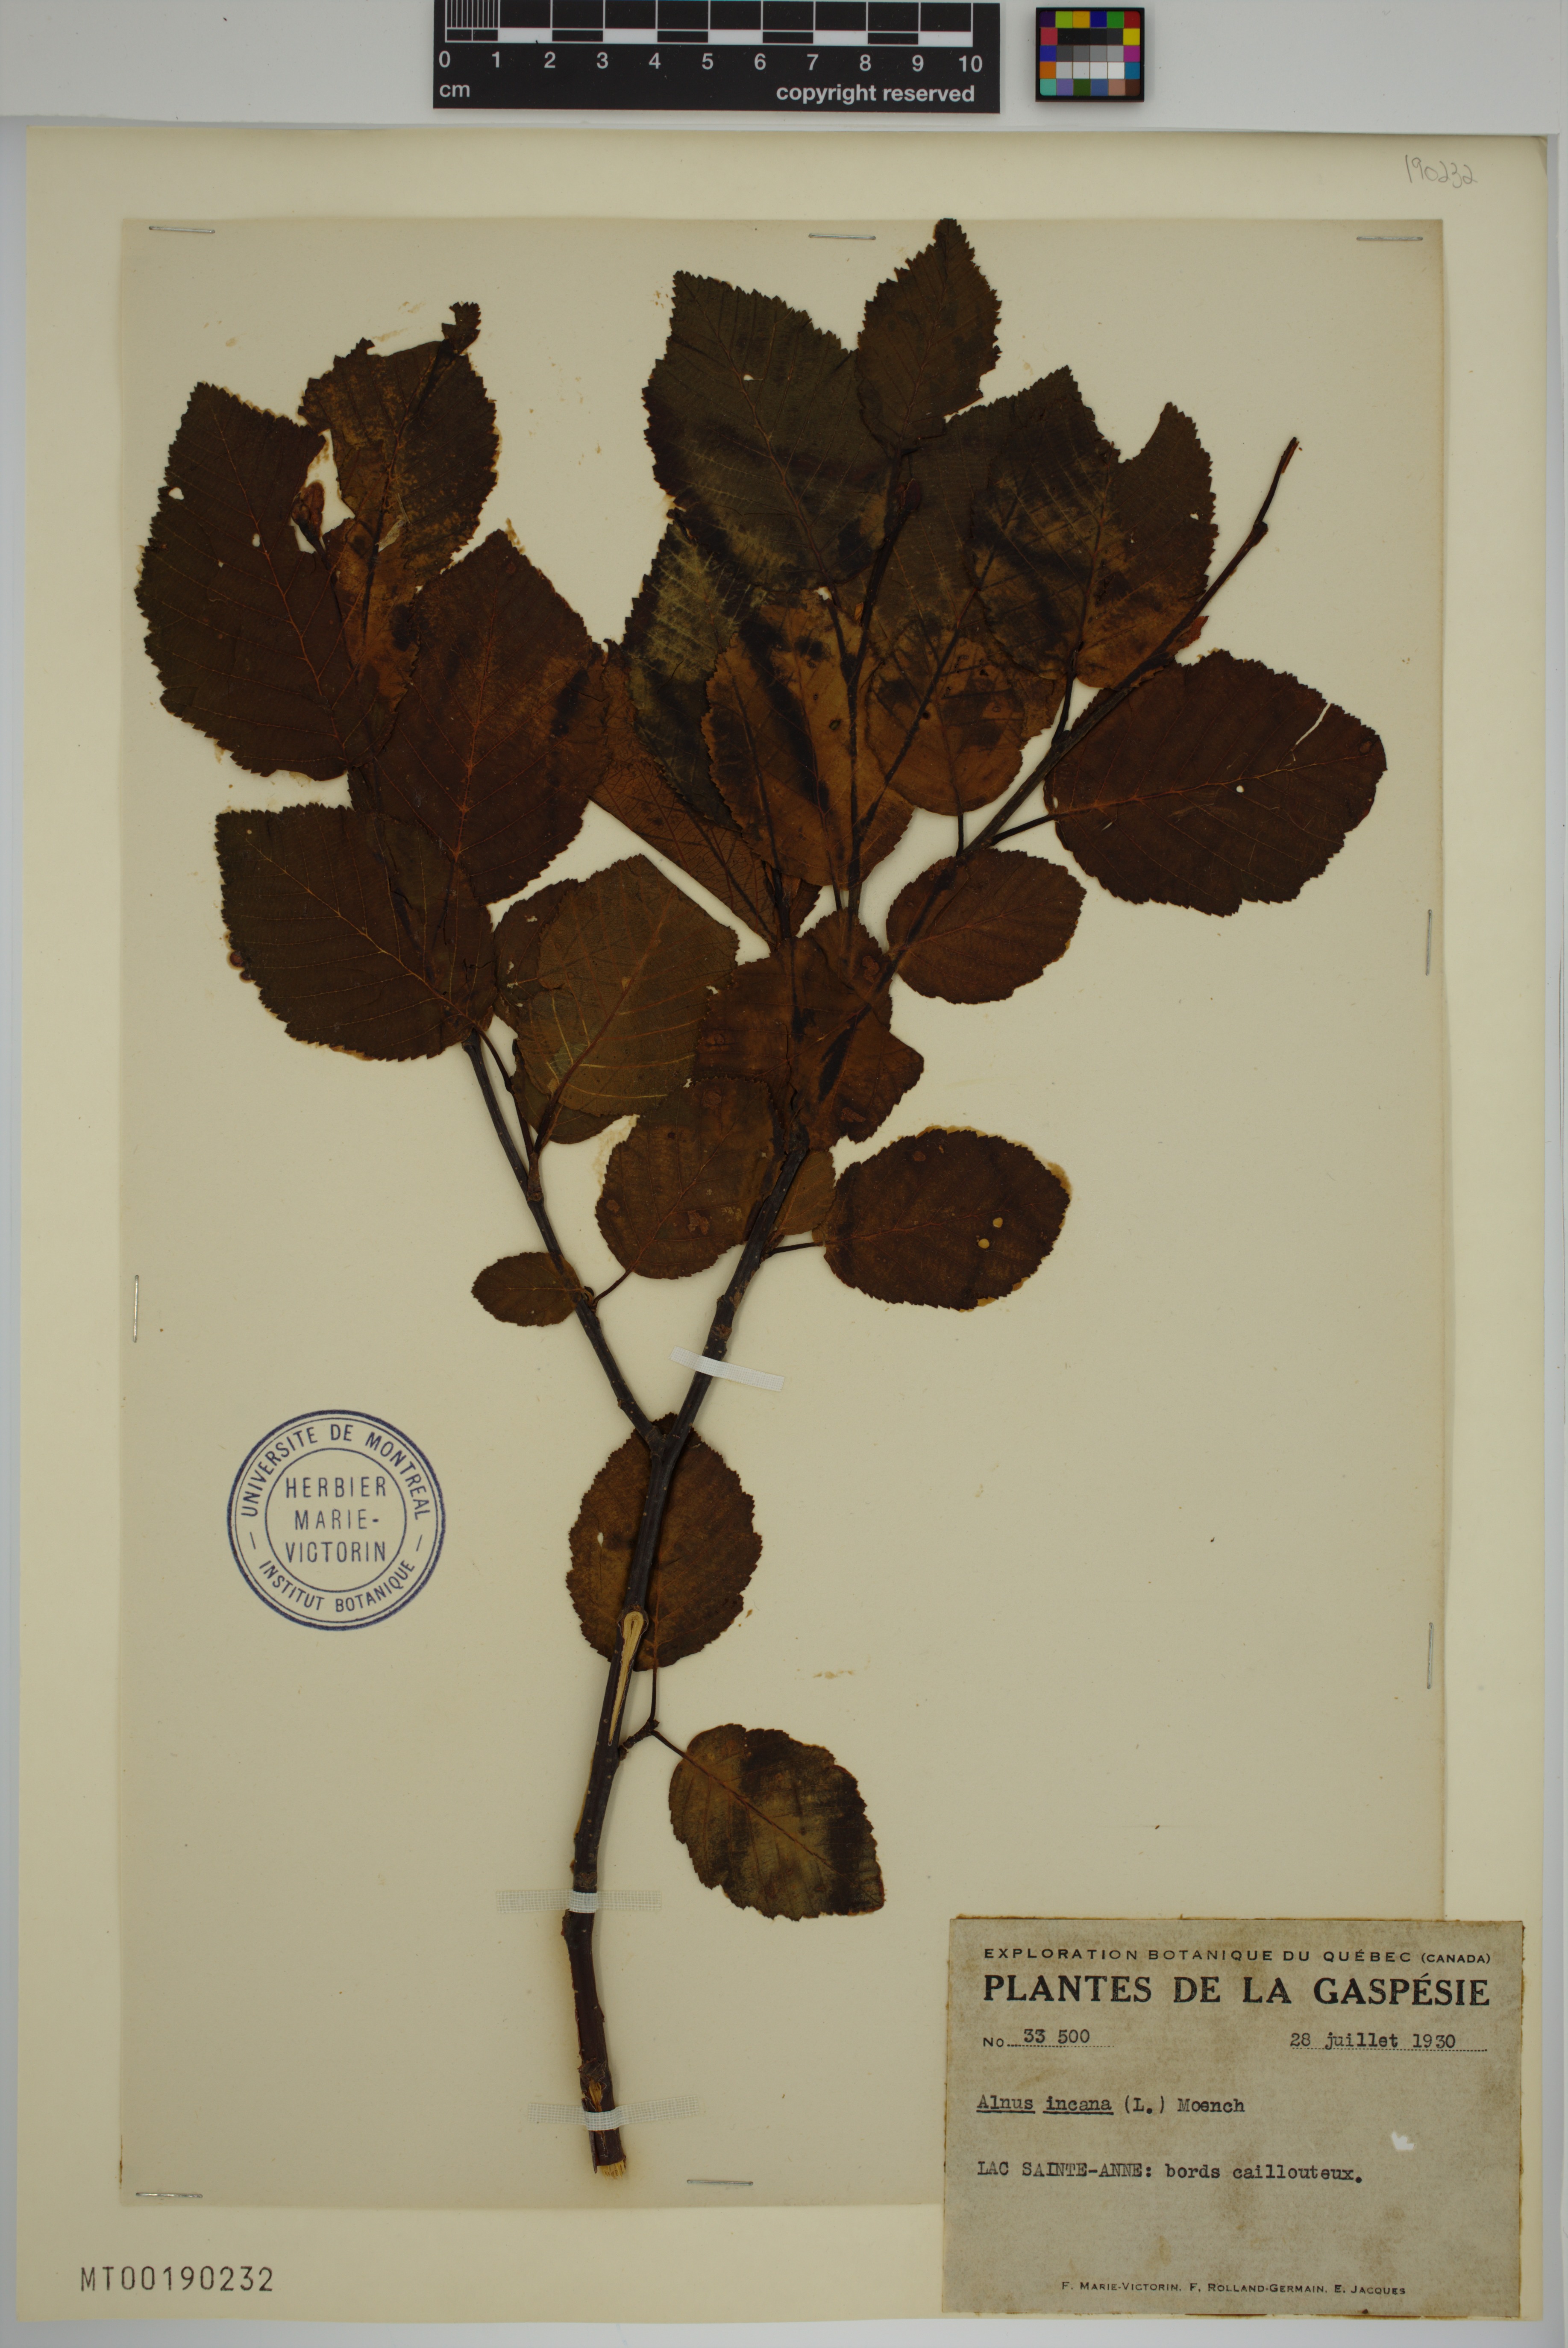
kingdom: Plantae
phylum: Tracheophyta
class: Magnoliopsida
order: Fagales
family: Betulaceae
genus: Alnus
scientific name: Alnus incana
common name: Grey alder
